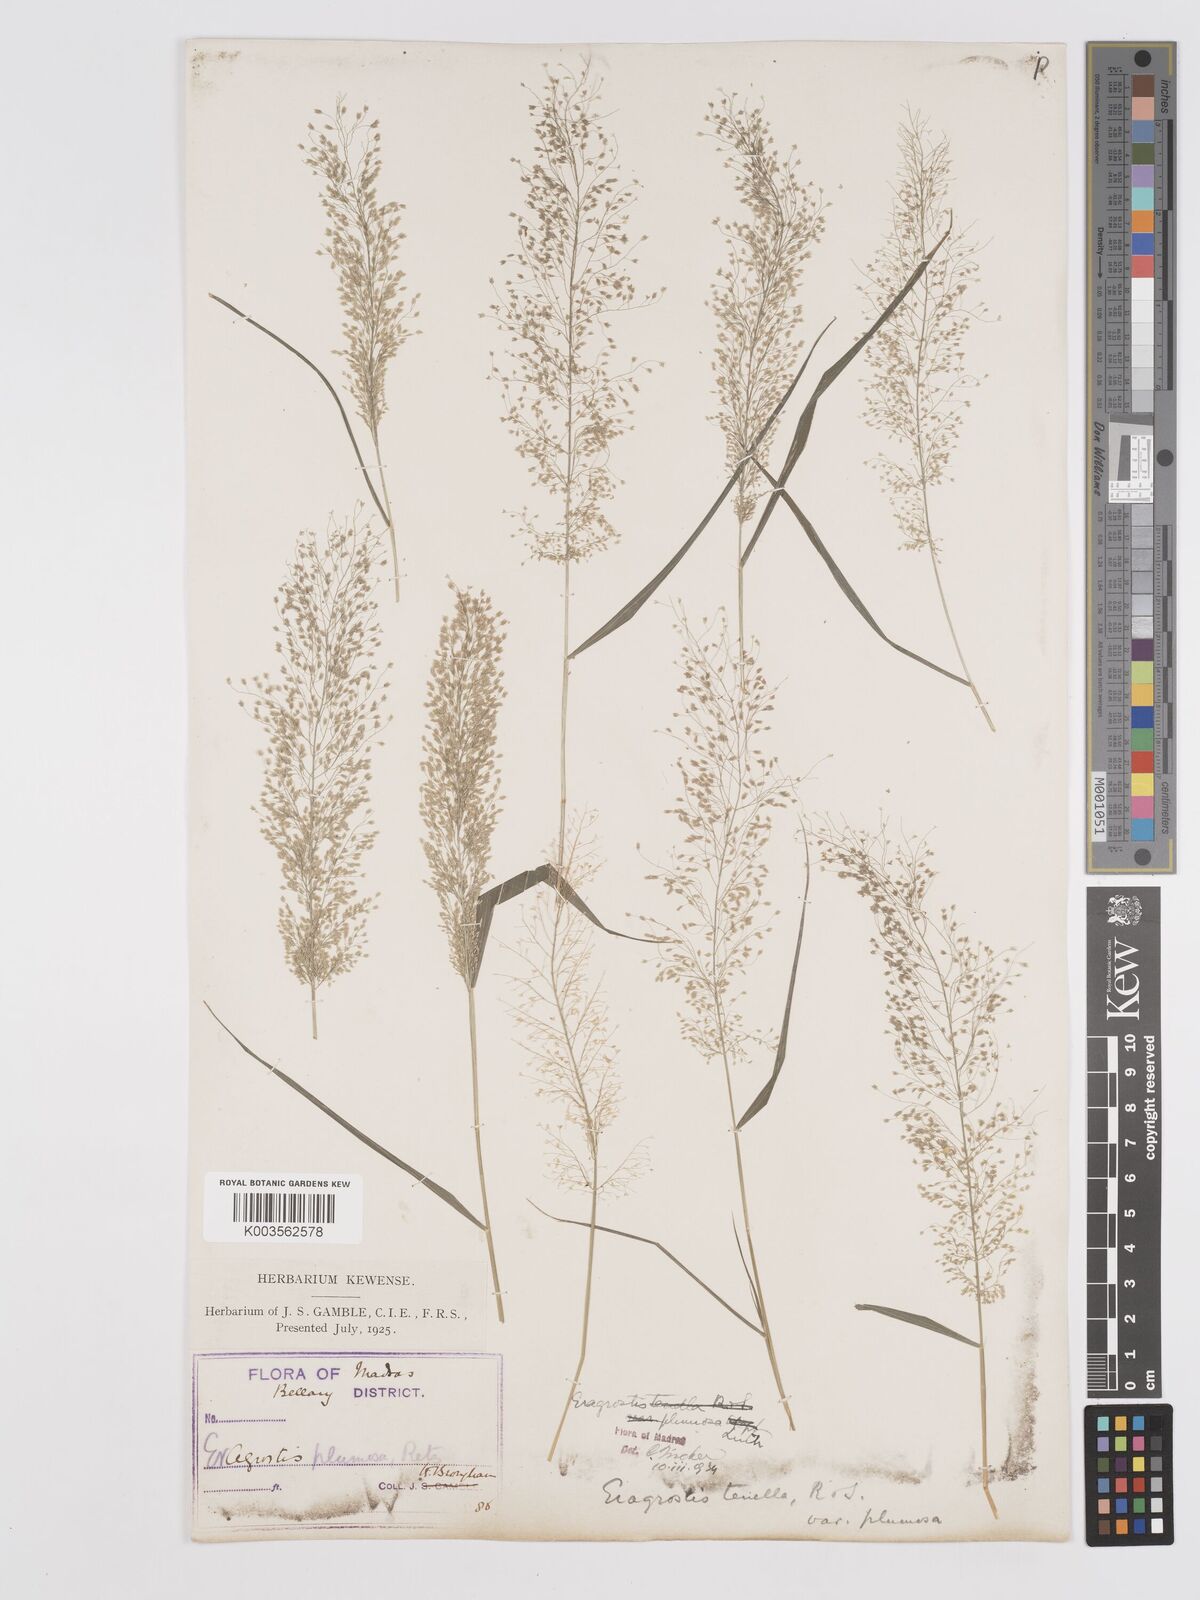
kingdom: Plantae
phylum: Tracheophyta
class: Liliopsida
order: Poales
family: Poaceae
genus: Eragrostis
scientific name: Eragrostis tenella
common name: Japanese lovegrass
